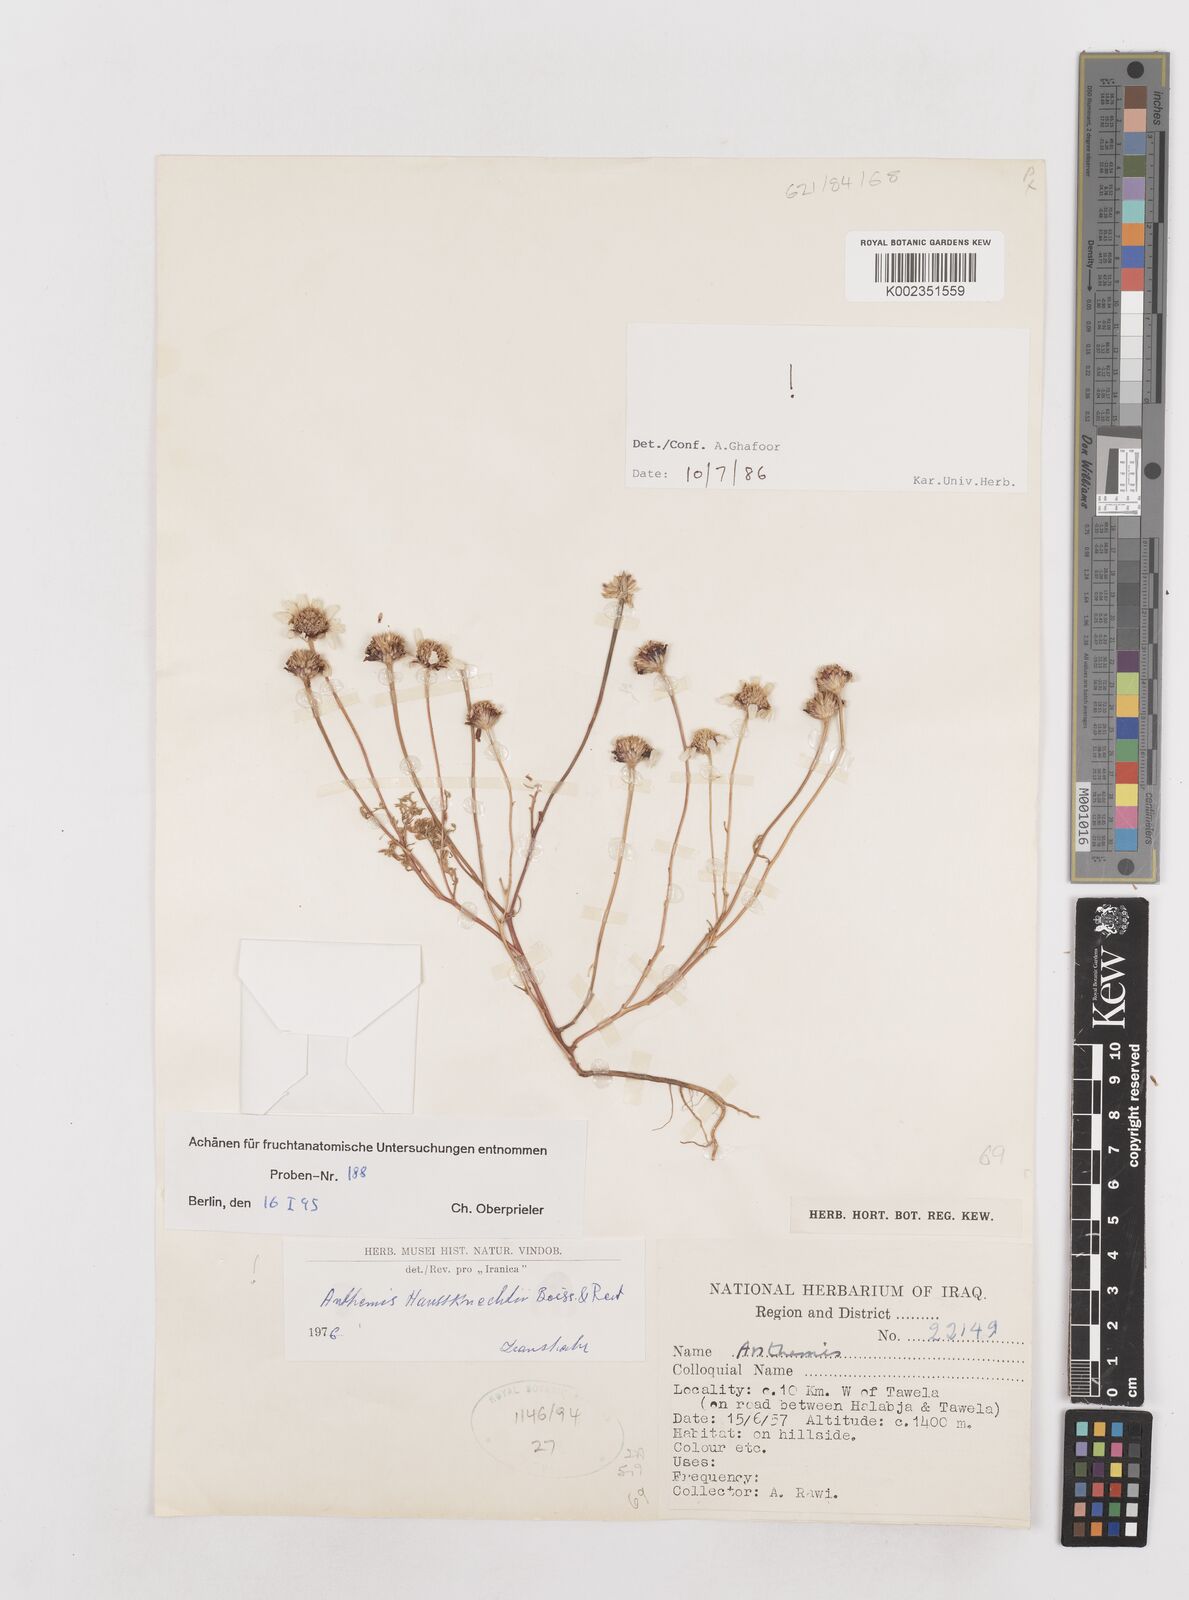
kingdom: Plantae
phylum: Tracheophyta
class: Magnoliopsida
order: Asterales
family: Asteraceae
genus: Anthemis
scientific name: Anthemis haussknechtii
